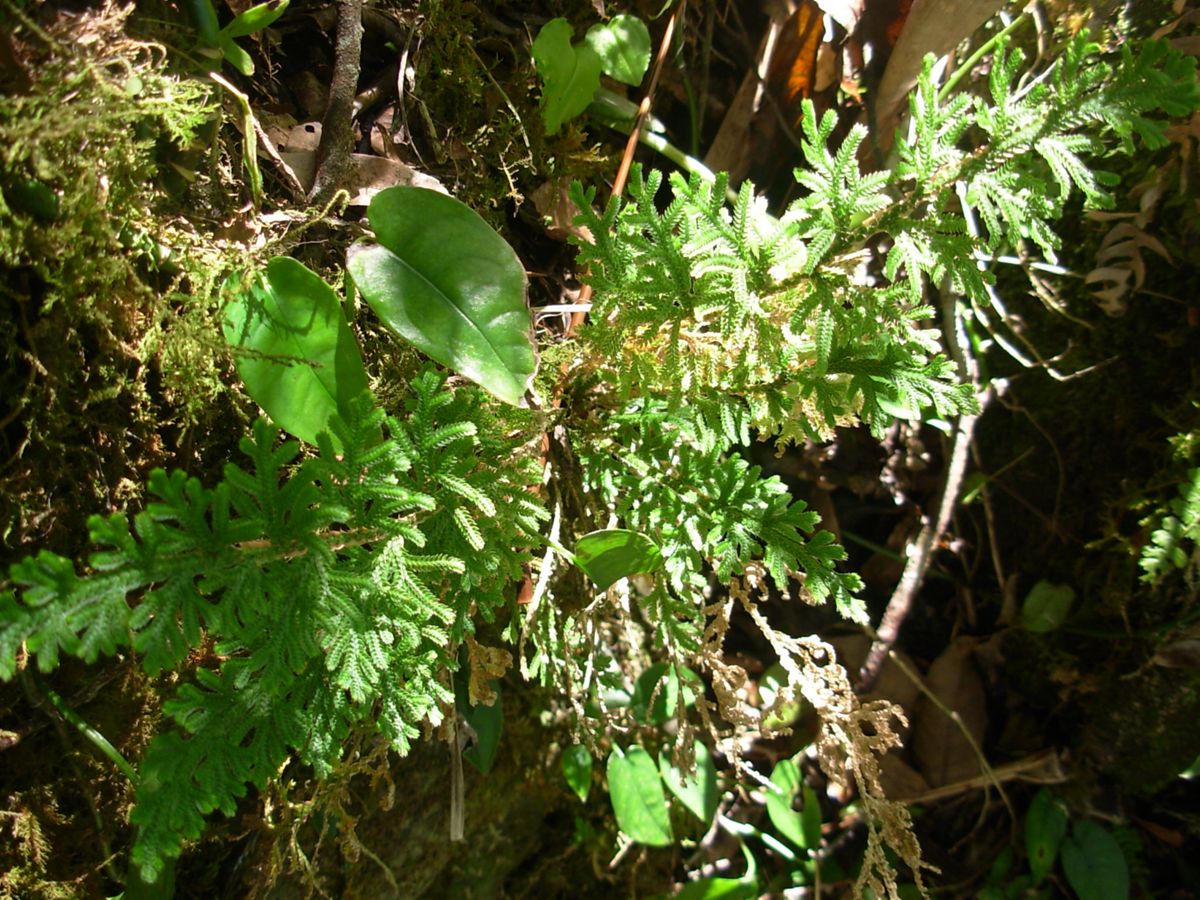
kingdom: Plantae
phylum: Tracheophyta
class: Lycopodiopsida
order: Selaginellales
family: Selaginellaceae
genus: Selaginella
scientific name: Selaginella pallescens
